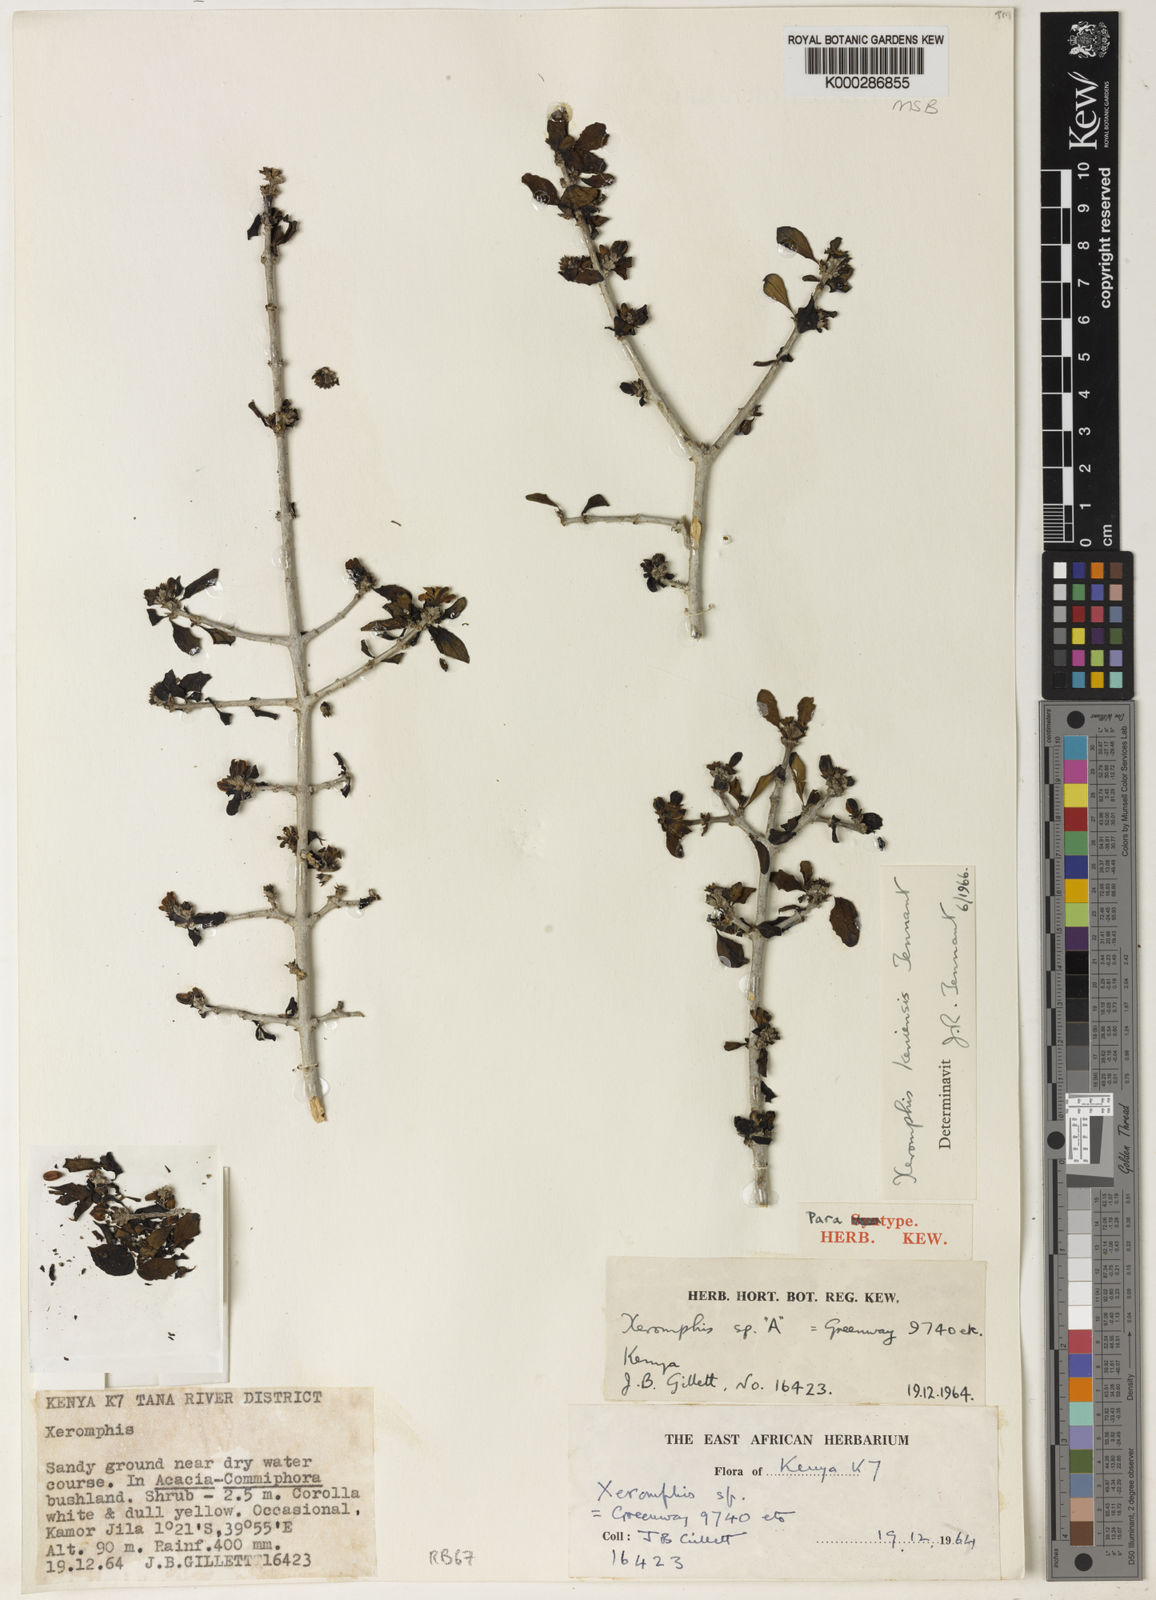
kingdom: Plantae
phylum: Tracheophyta
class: Magnoliopsida
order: Gentianales
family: Rubiaceae
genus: Tennantia
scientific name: Tennantia sennii
